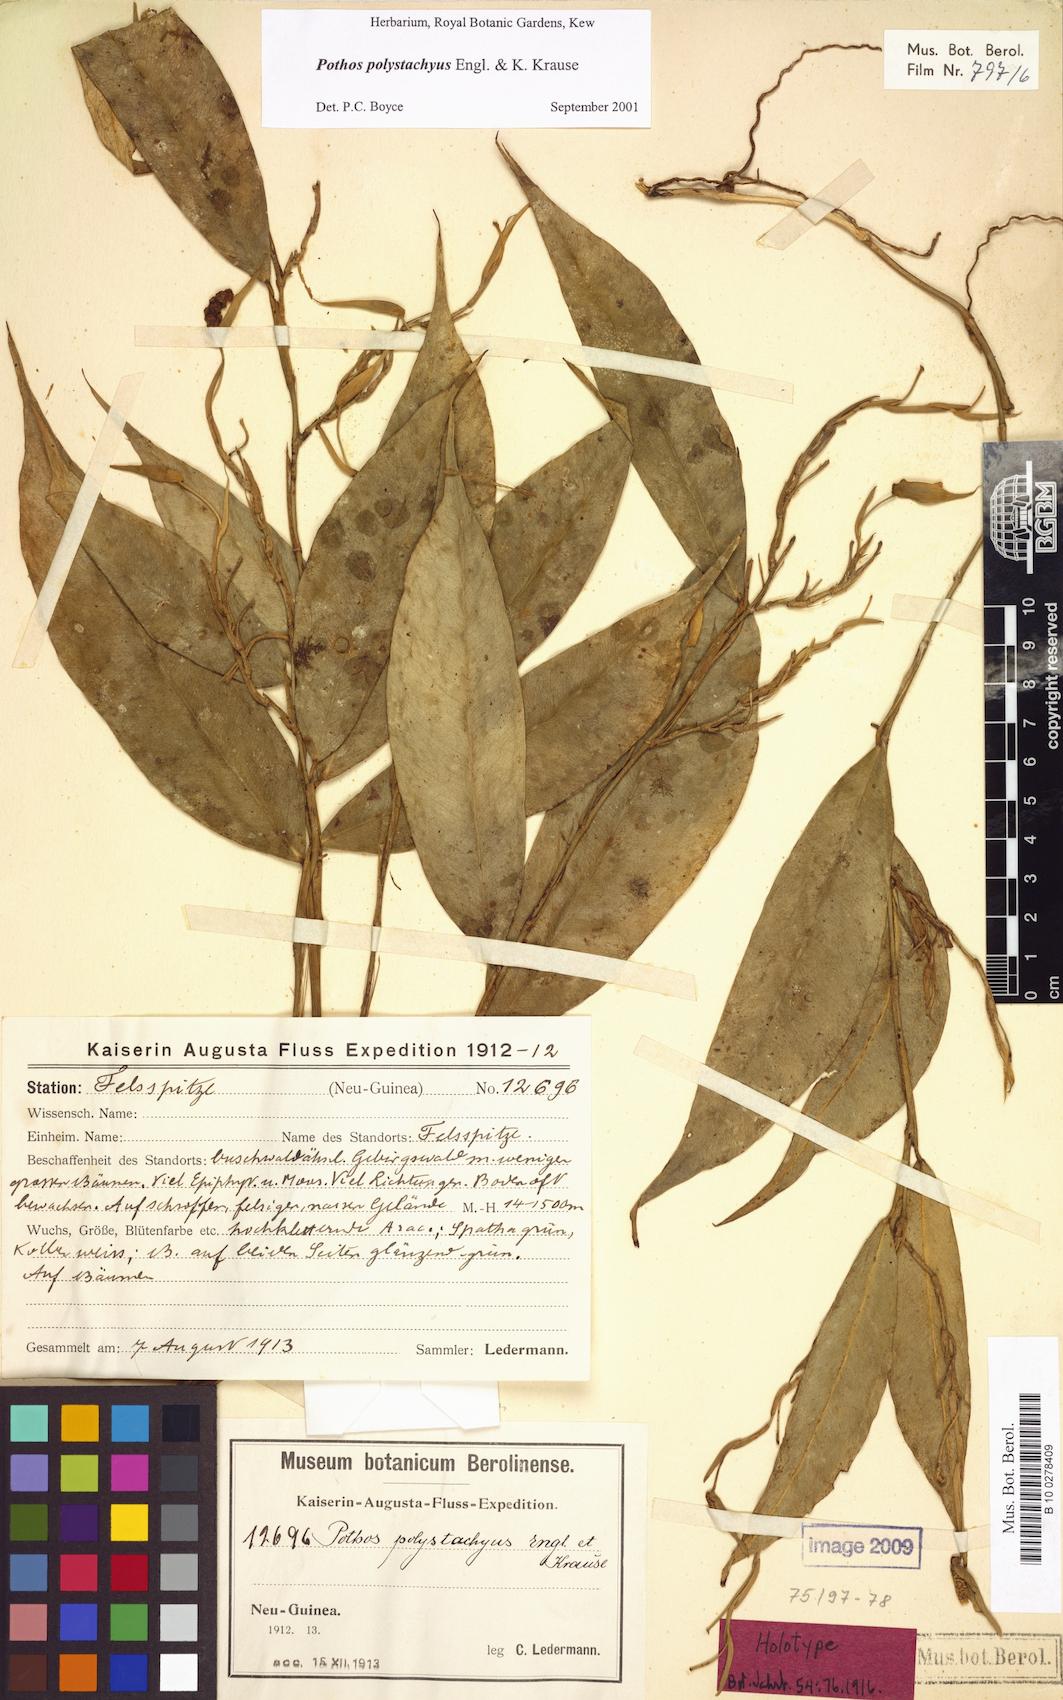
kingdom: Plantae
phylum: Tracheophyta
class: Liliopsida
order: Alismatales
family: Araceae
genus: Pothos
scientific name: Pothos polystachyus
